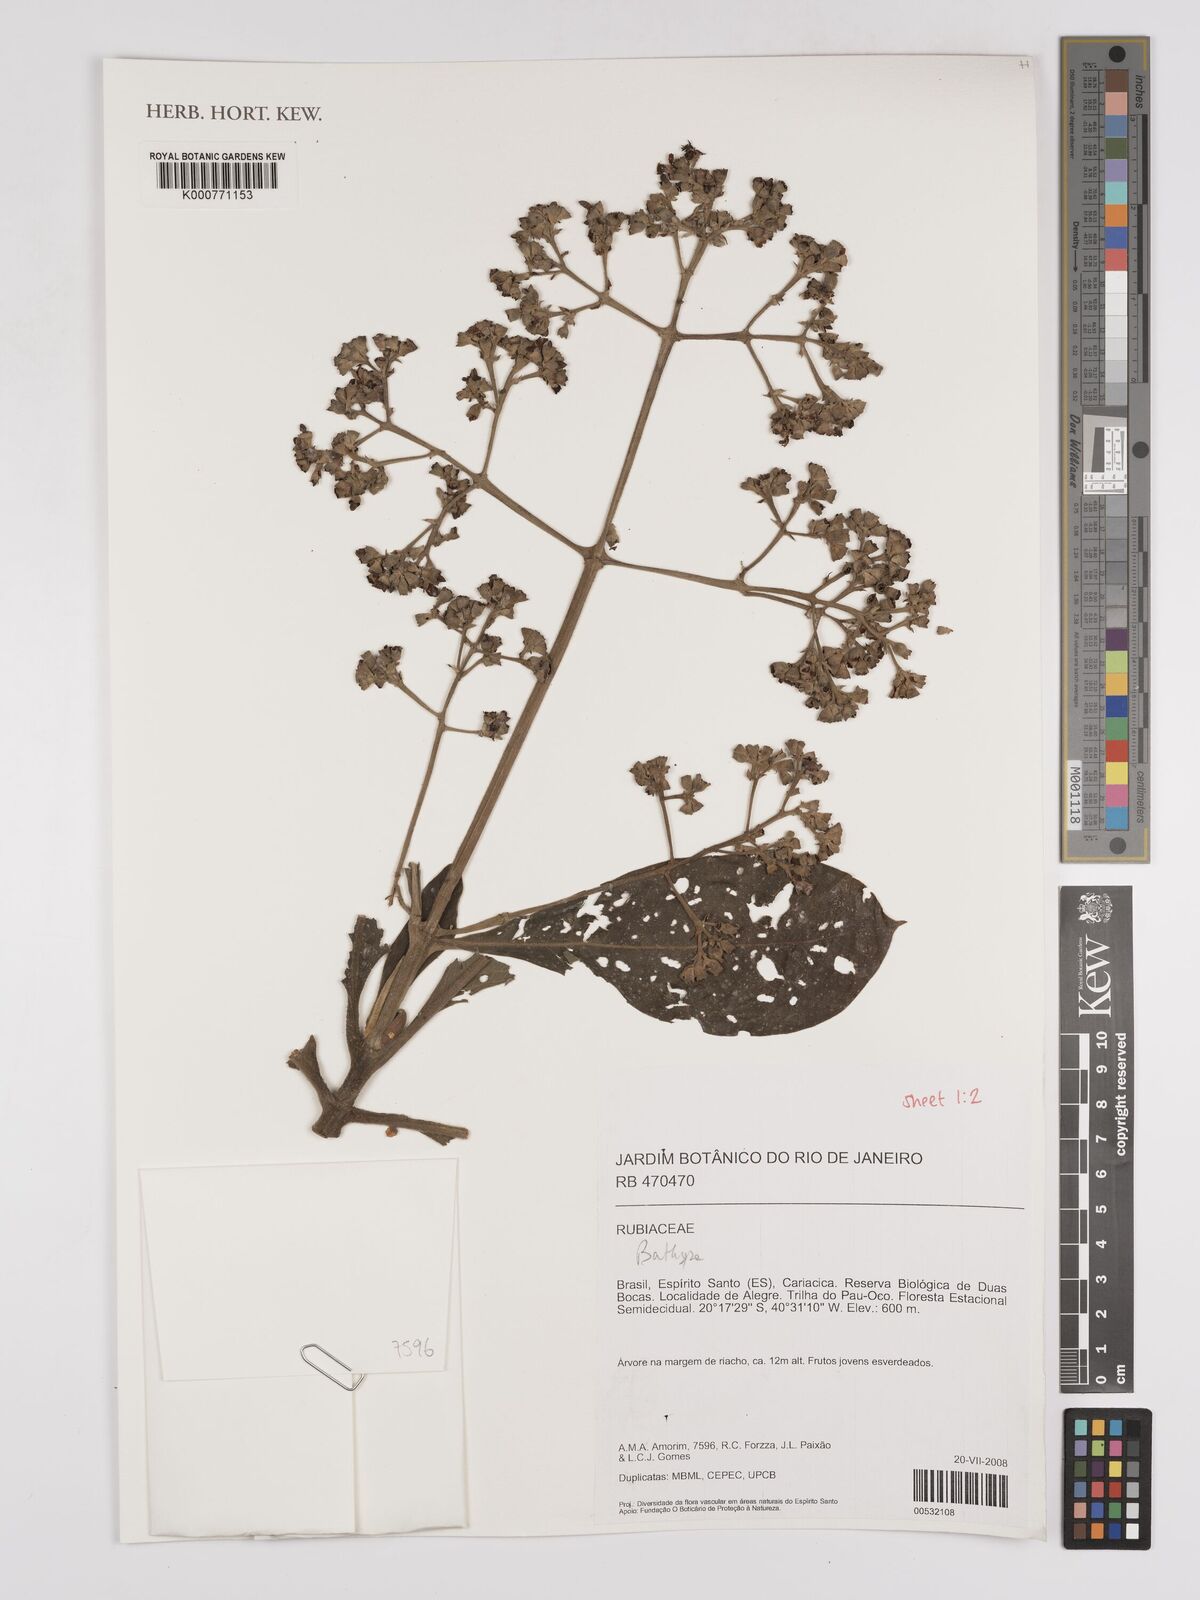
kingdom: Plantae
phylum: Tracheophyta
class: Magnoliopsida
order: Gentianales
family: Rubiaceae
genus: Bathysa
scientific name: Bathysa
